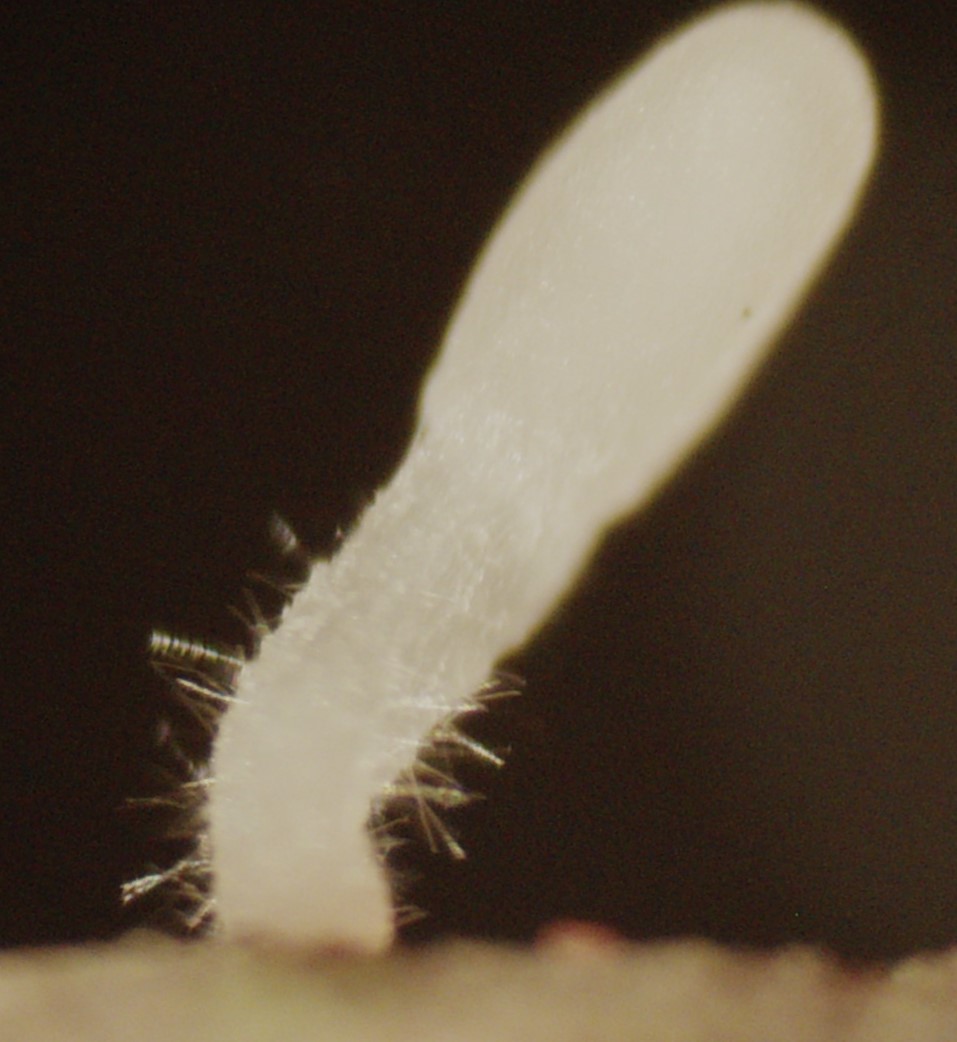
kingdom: Fungi
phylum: Basidiomycota
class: Agaricomycetes
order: Agaricales
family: Typhulaceae
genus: Typhula
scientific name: Typhula erythropus
